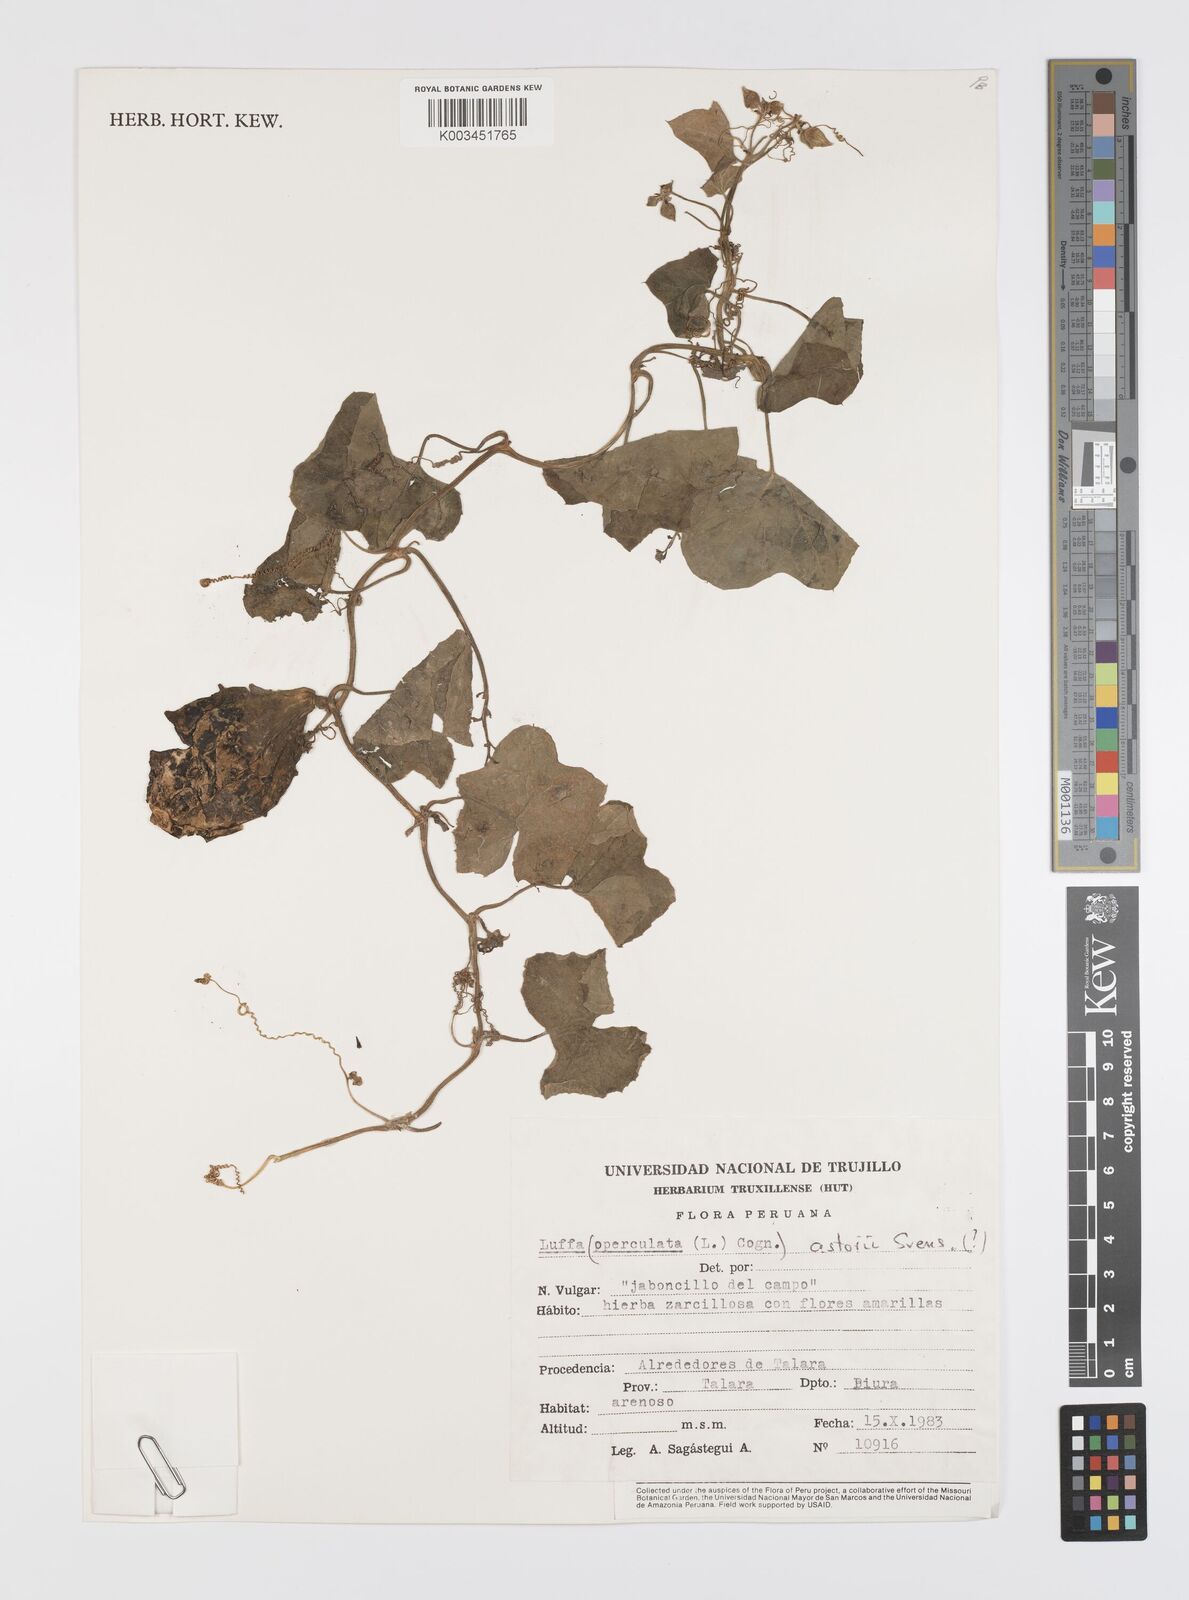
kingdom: Plantae
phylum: Tracheophyta
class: Magnoliopsida
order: Cucurbitales
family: Cucurbitaceae
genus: Luffa
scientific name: Luffa astorii
